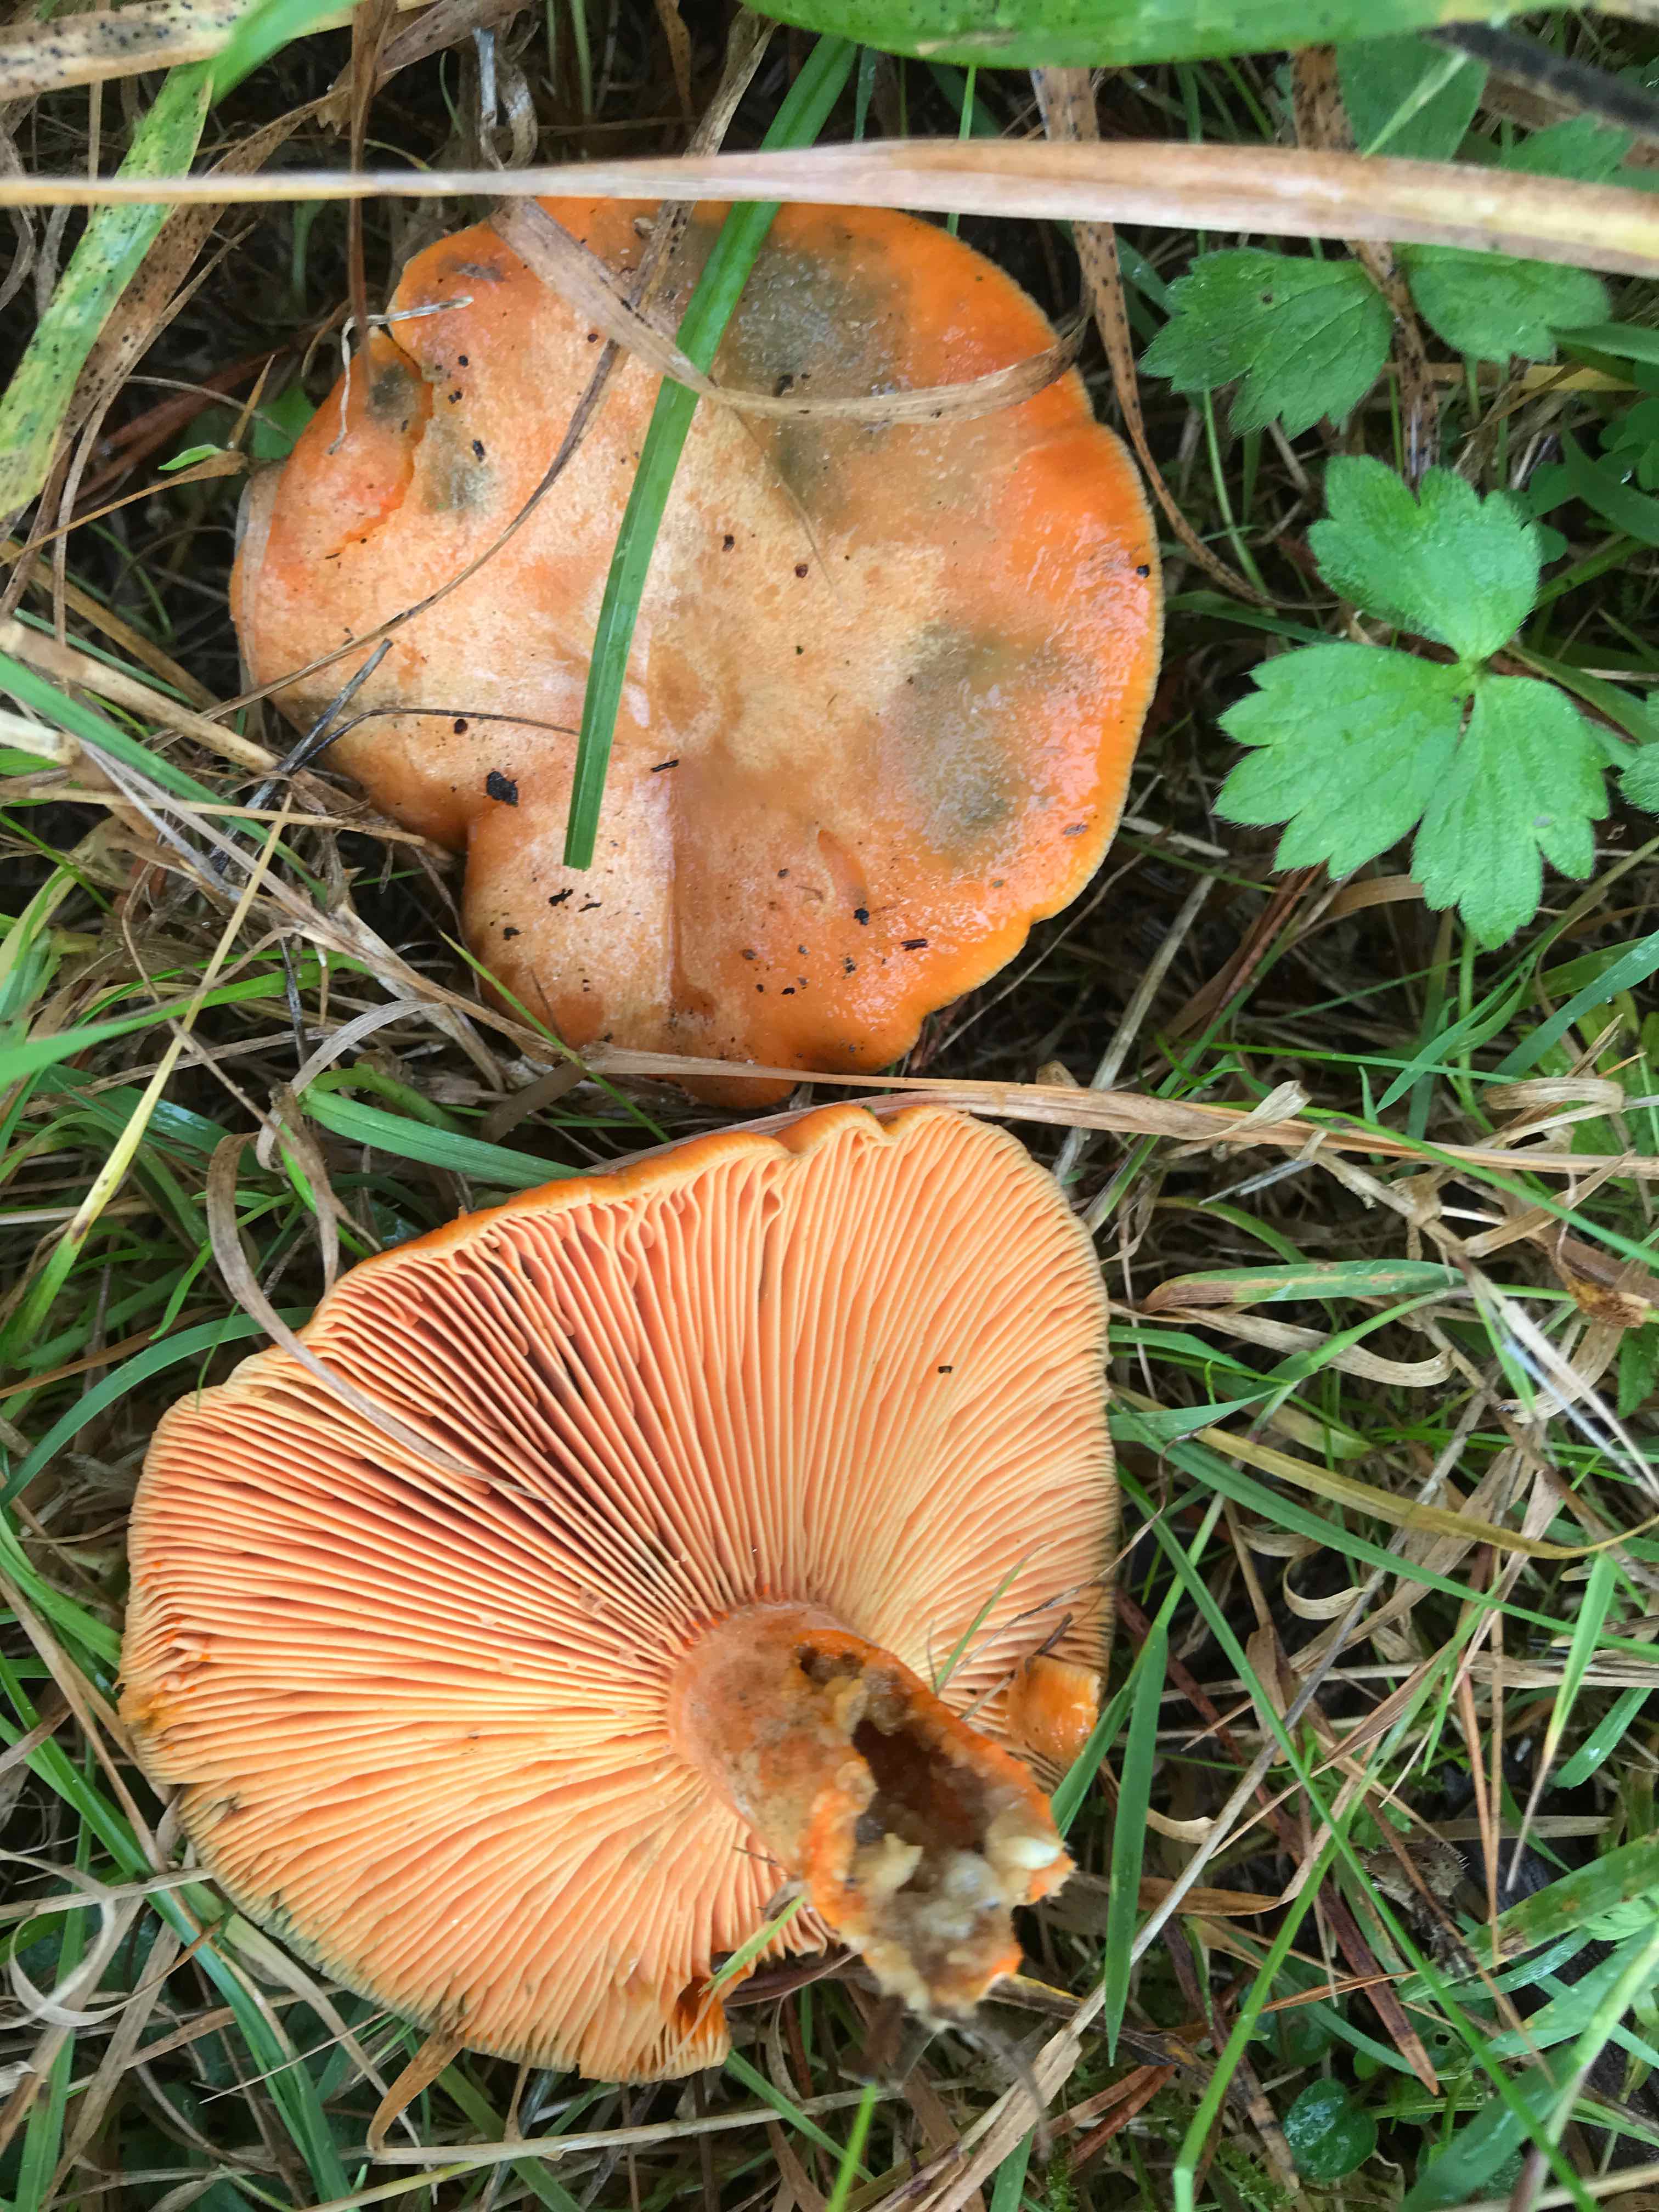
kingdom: Fungi
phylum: Basidiomycota
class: Agaricomycetes
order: Russulales
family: Russulaceae
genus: Lactarius
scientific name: Lactarius deterrimus
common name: gran-mælkehat
